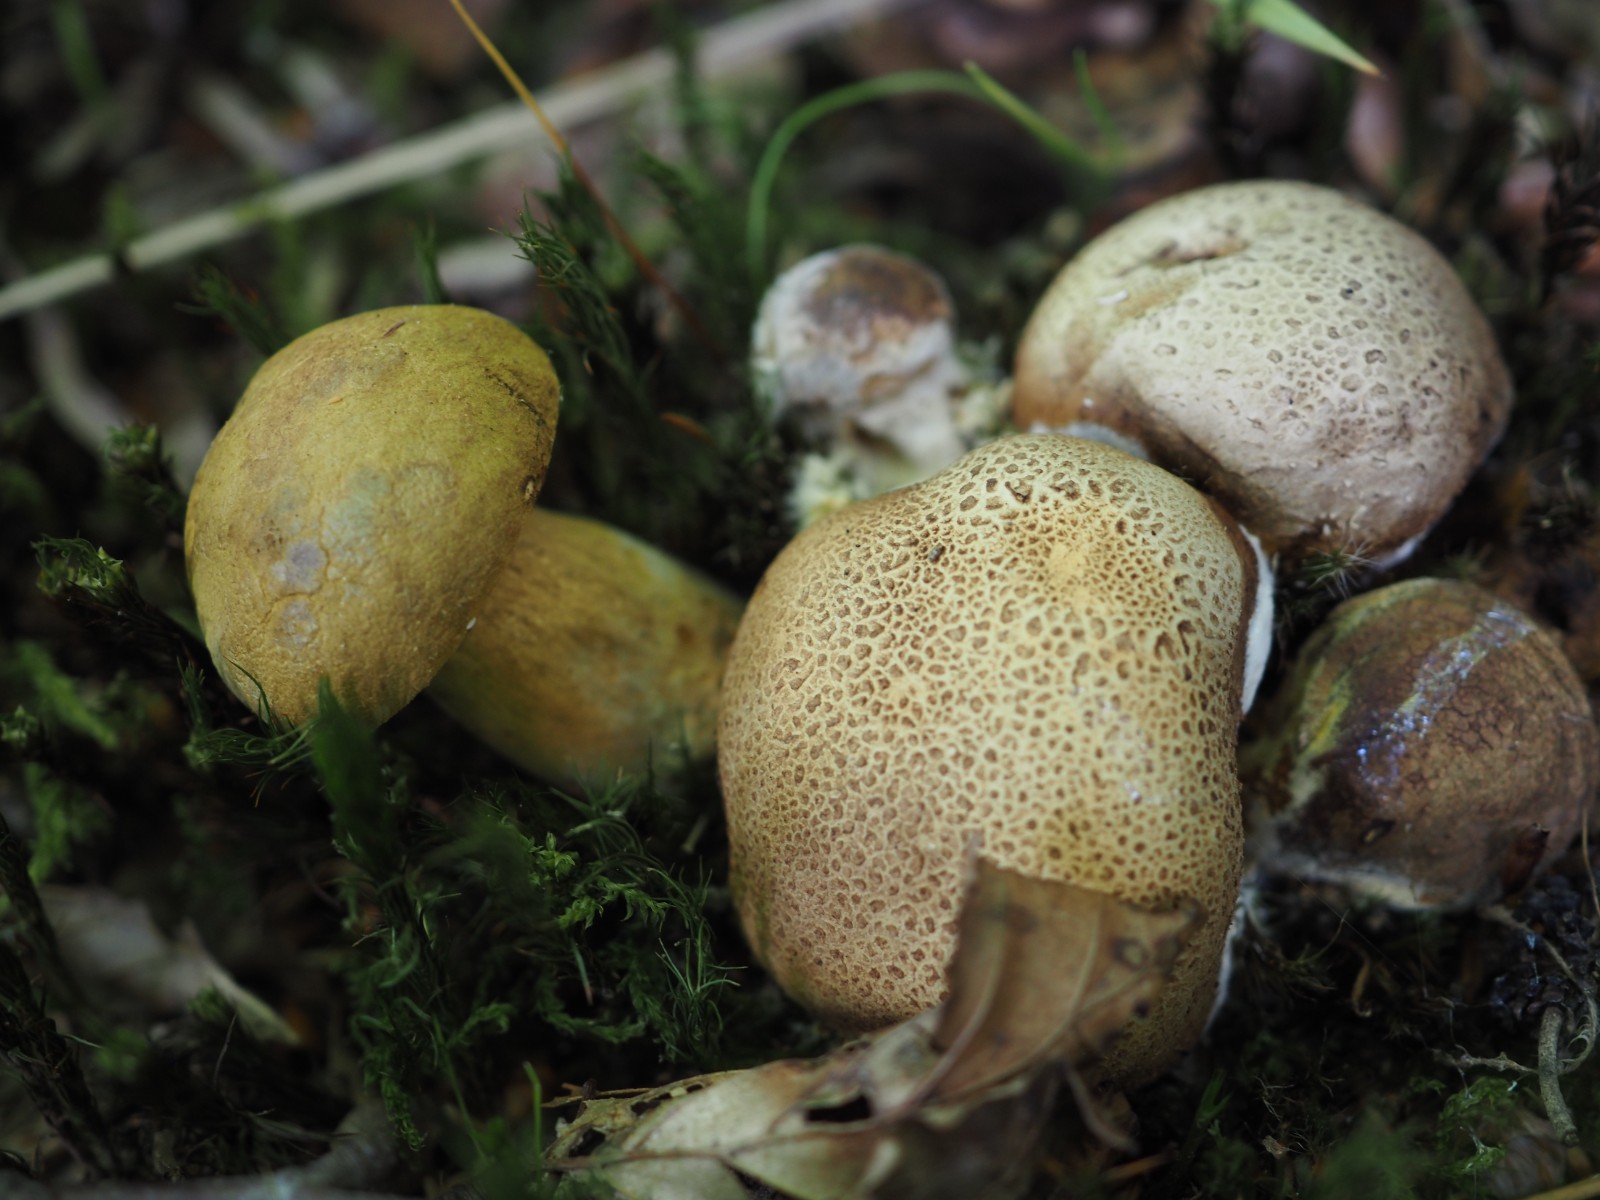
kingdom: Fungi
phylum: Basidiomycota
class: Agaricomycetes
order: Boletales
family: Boletaceae
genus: Pseudoboletus
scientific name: Pseudoboletus parasiticus
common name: snyltende rørhat
